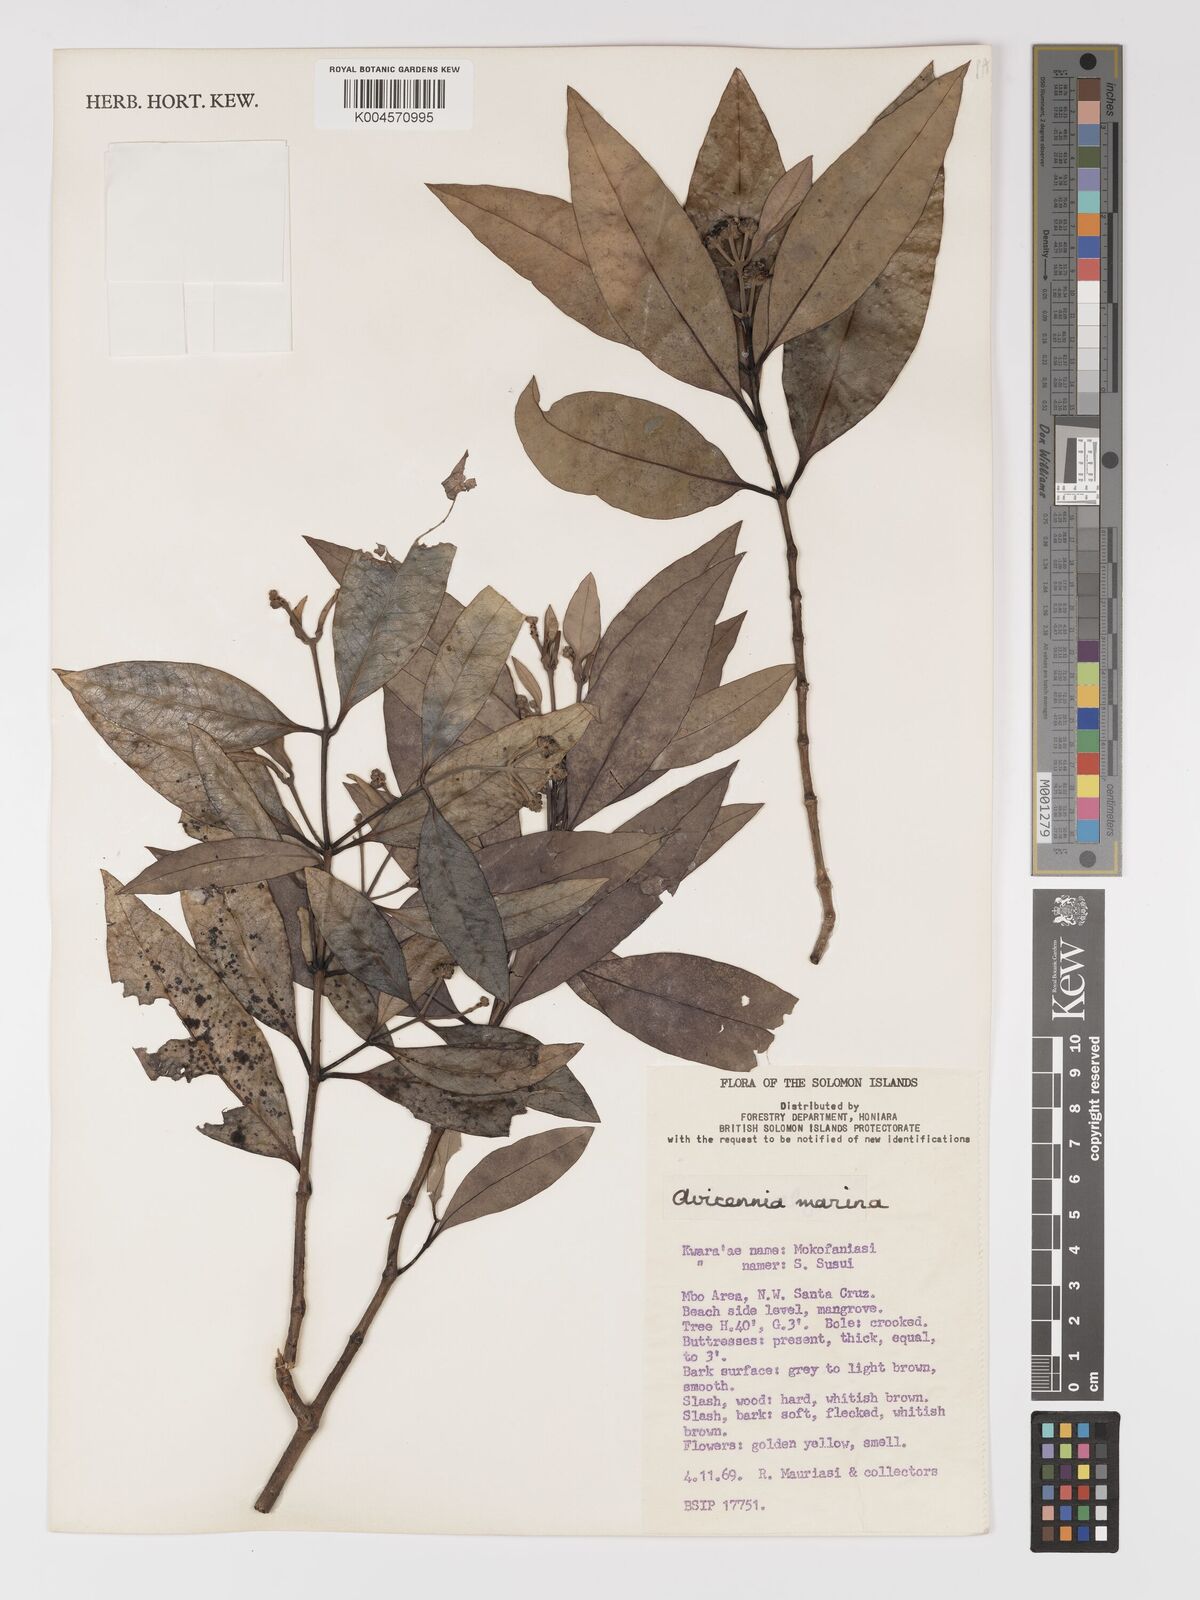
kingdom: Plantae
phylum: Tracheophyta
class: Magnoliopsida
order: Lamiales
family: Acanthaceae
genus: Avicennia
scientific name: Avicennia marina
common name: Gray mangrove
